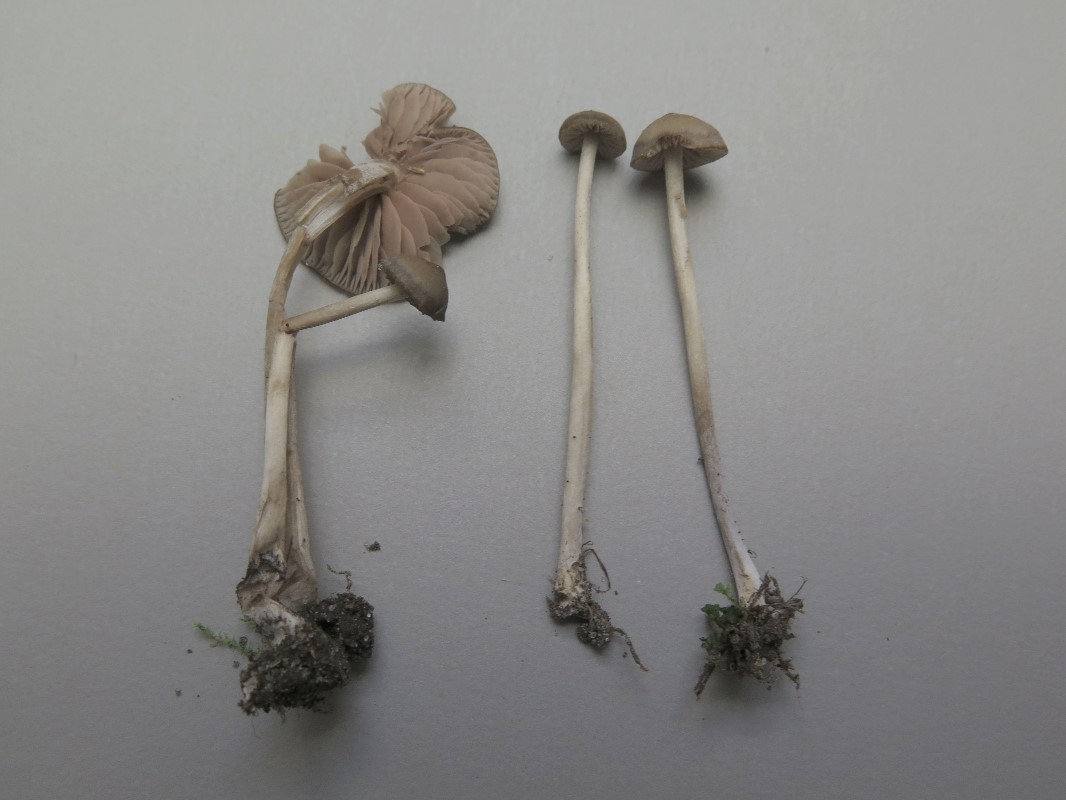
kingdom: Fungi
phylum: Basidiomycota
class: Agaricomycetes
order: Agaricales
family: Entolomataceae
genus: Entoloma
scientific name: Entoloma
